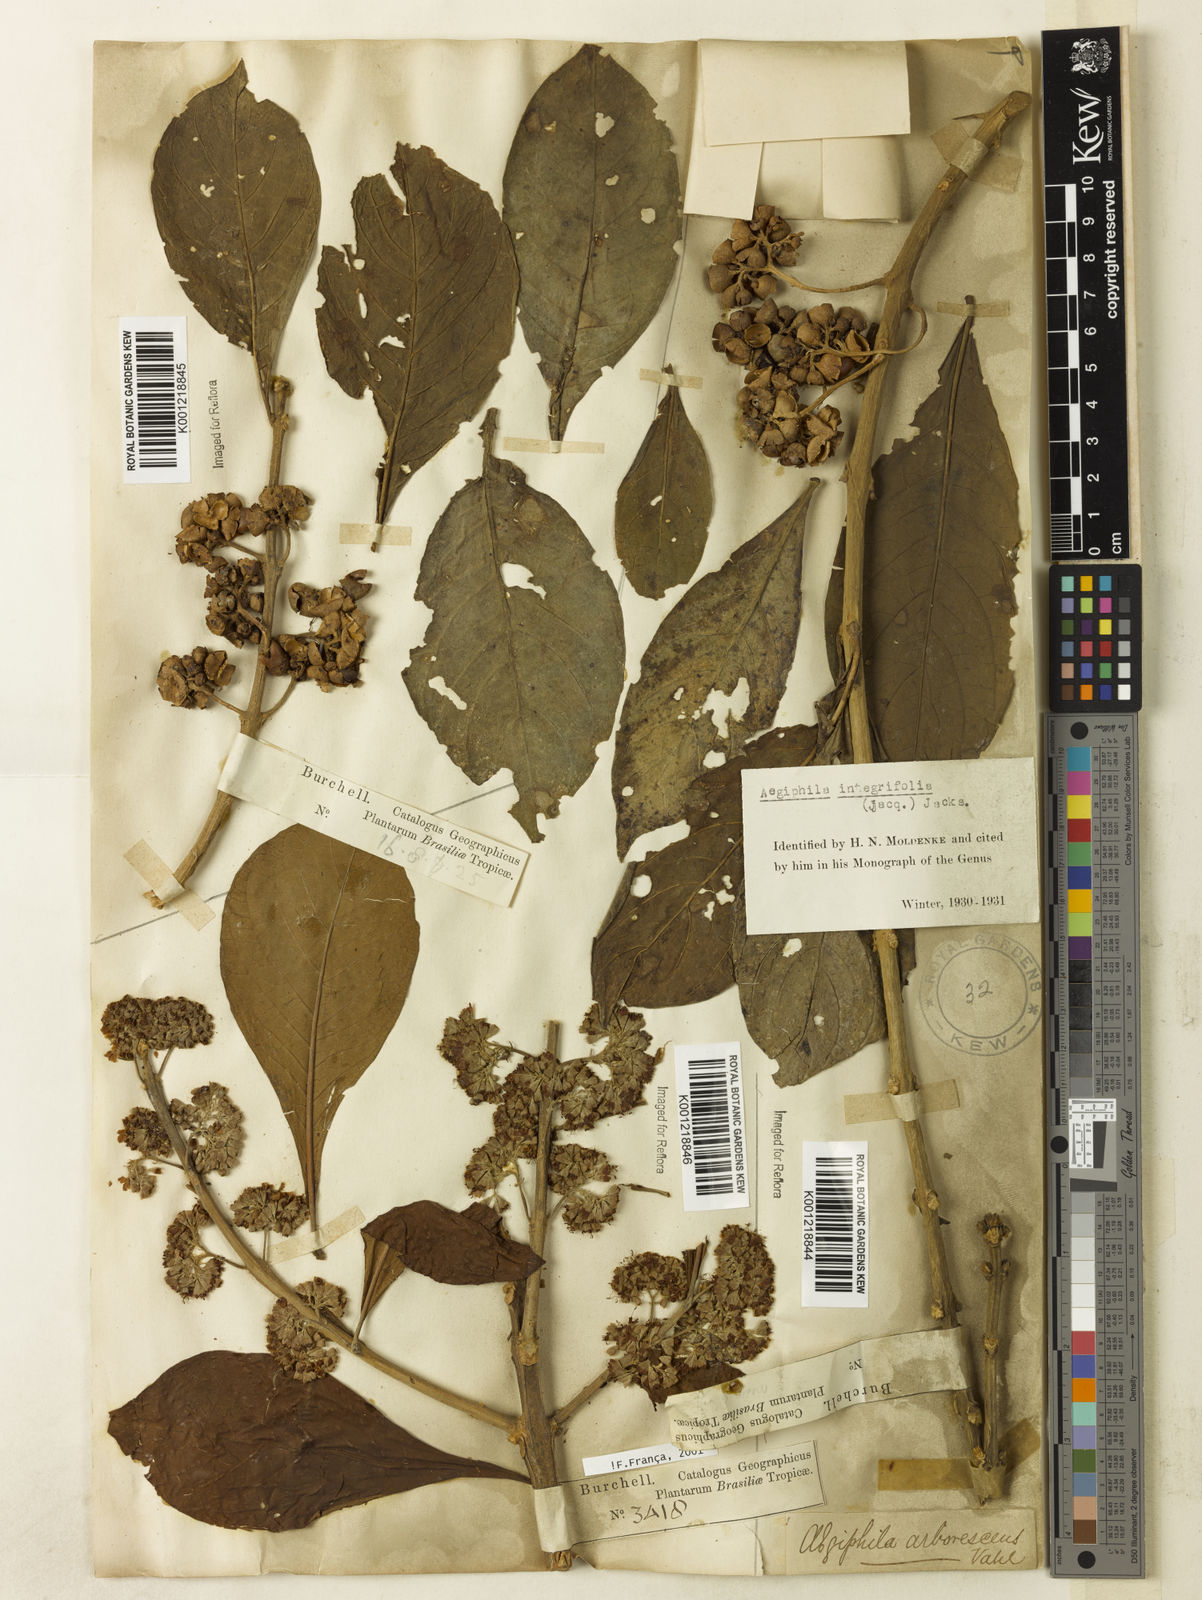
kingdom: Plantae
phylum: Tracheophyta
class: Magnoliopsida
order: Lamiales
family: Lamiaceae
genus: Aegiphila
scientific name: Aegiphila
